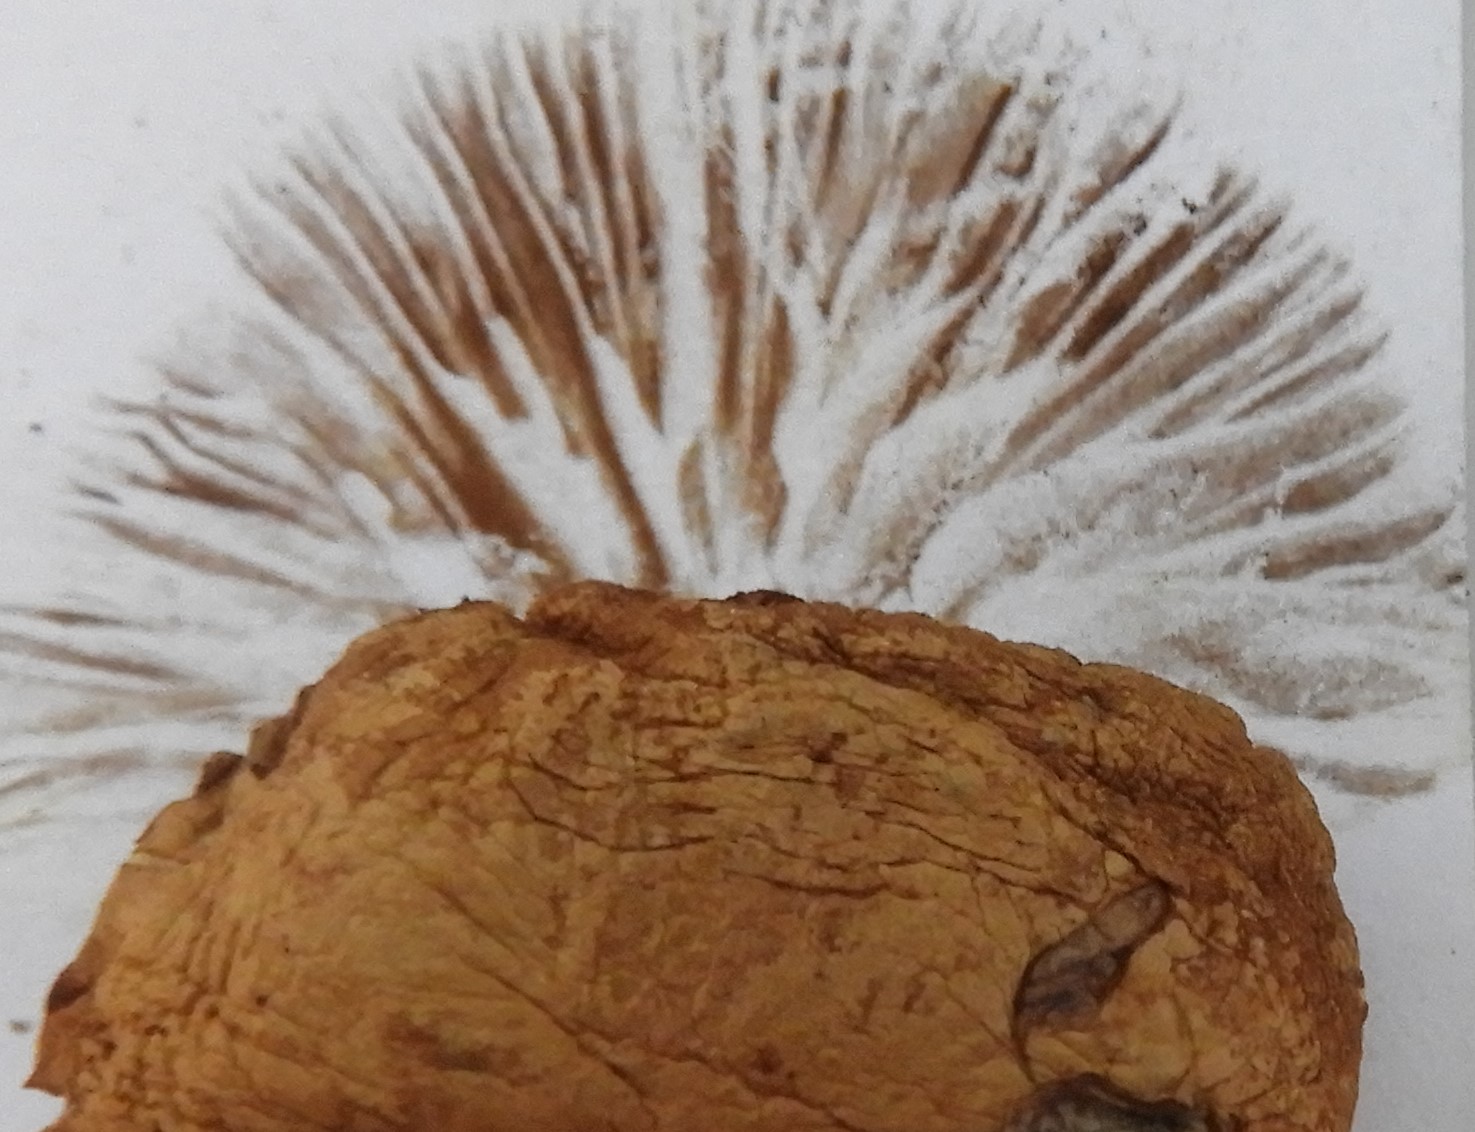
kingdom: Fungi
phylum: Basidiomycota
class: Agaricomycetes
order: Agaricales
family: Strophariaceae
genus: Agrocybe
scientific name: Agrocybe pediades
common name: almindelig agerhat
